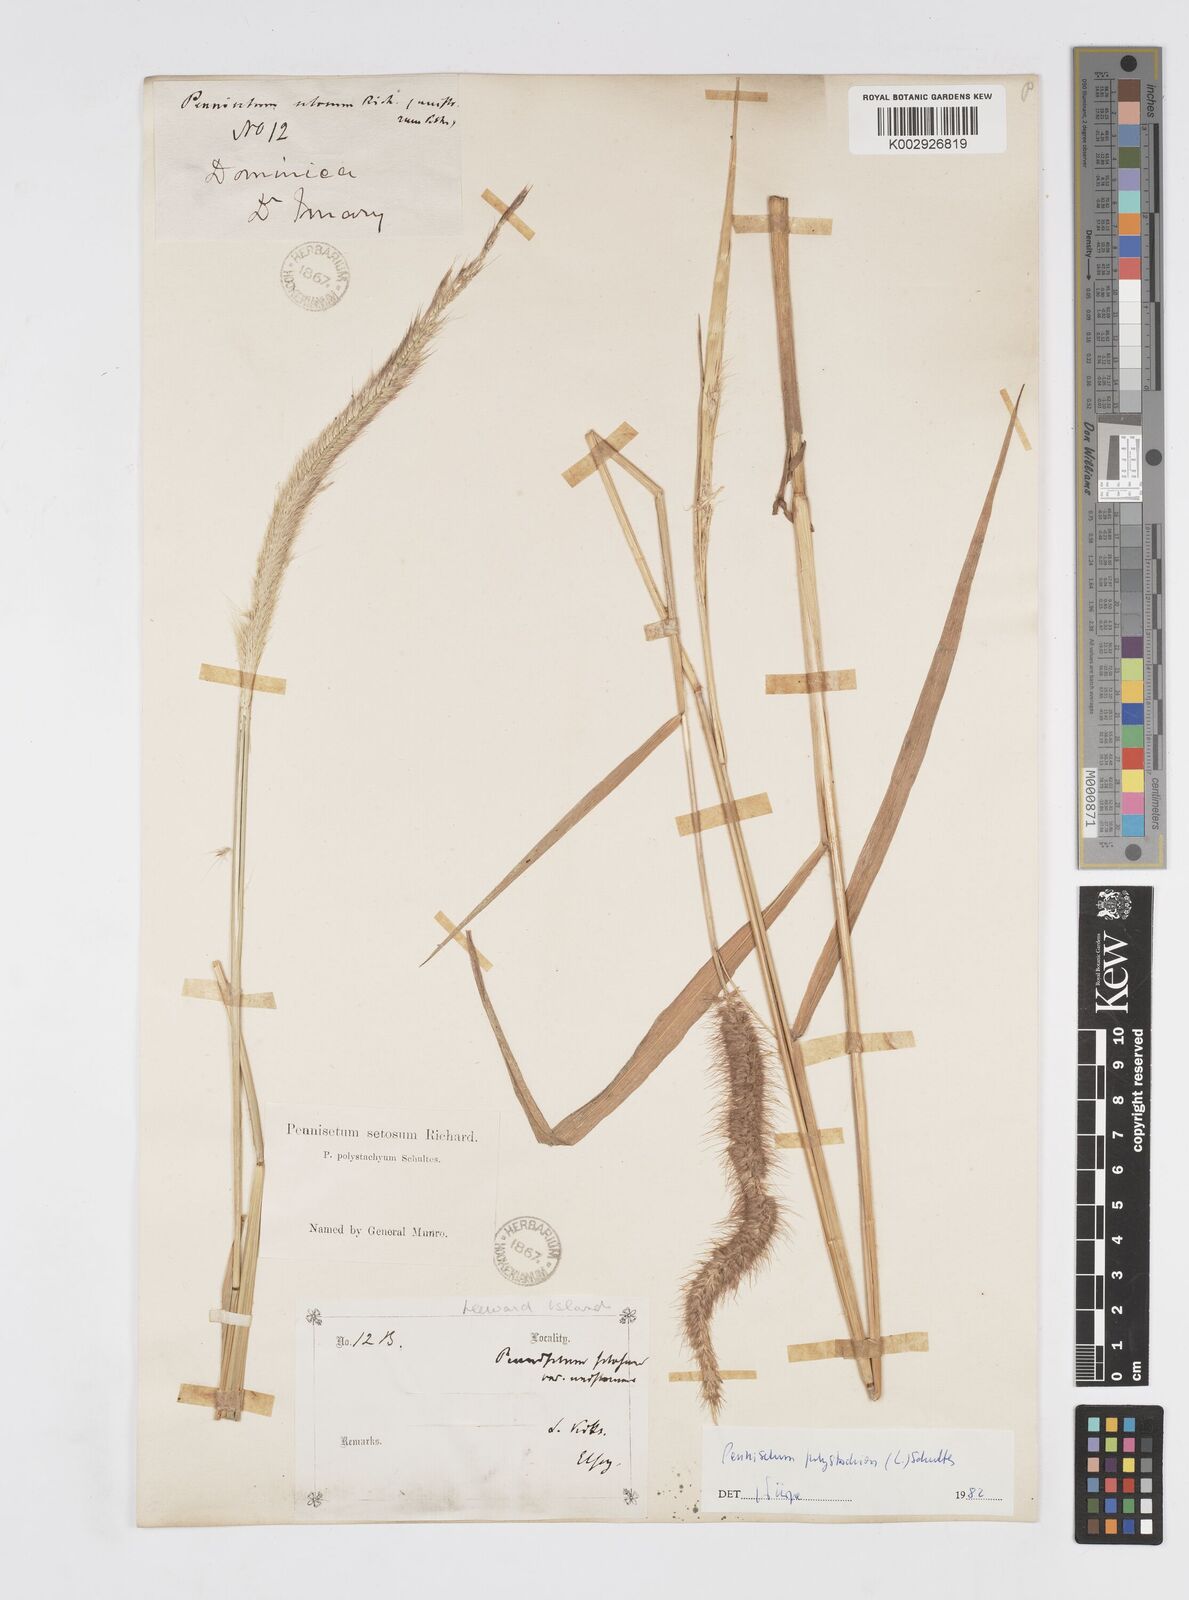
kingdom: Plantae
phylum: Tracheophyta
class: Liliopsida
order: Poales
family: Poaceae
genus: Cenchrus
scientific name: Cenchrus setosus
